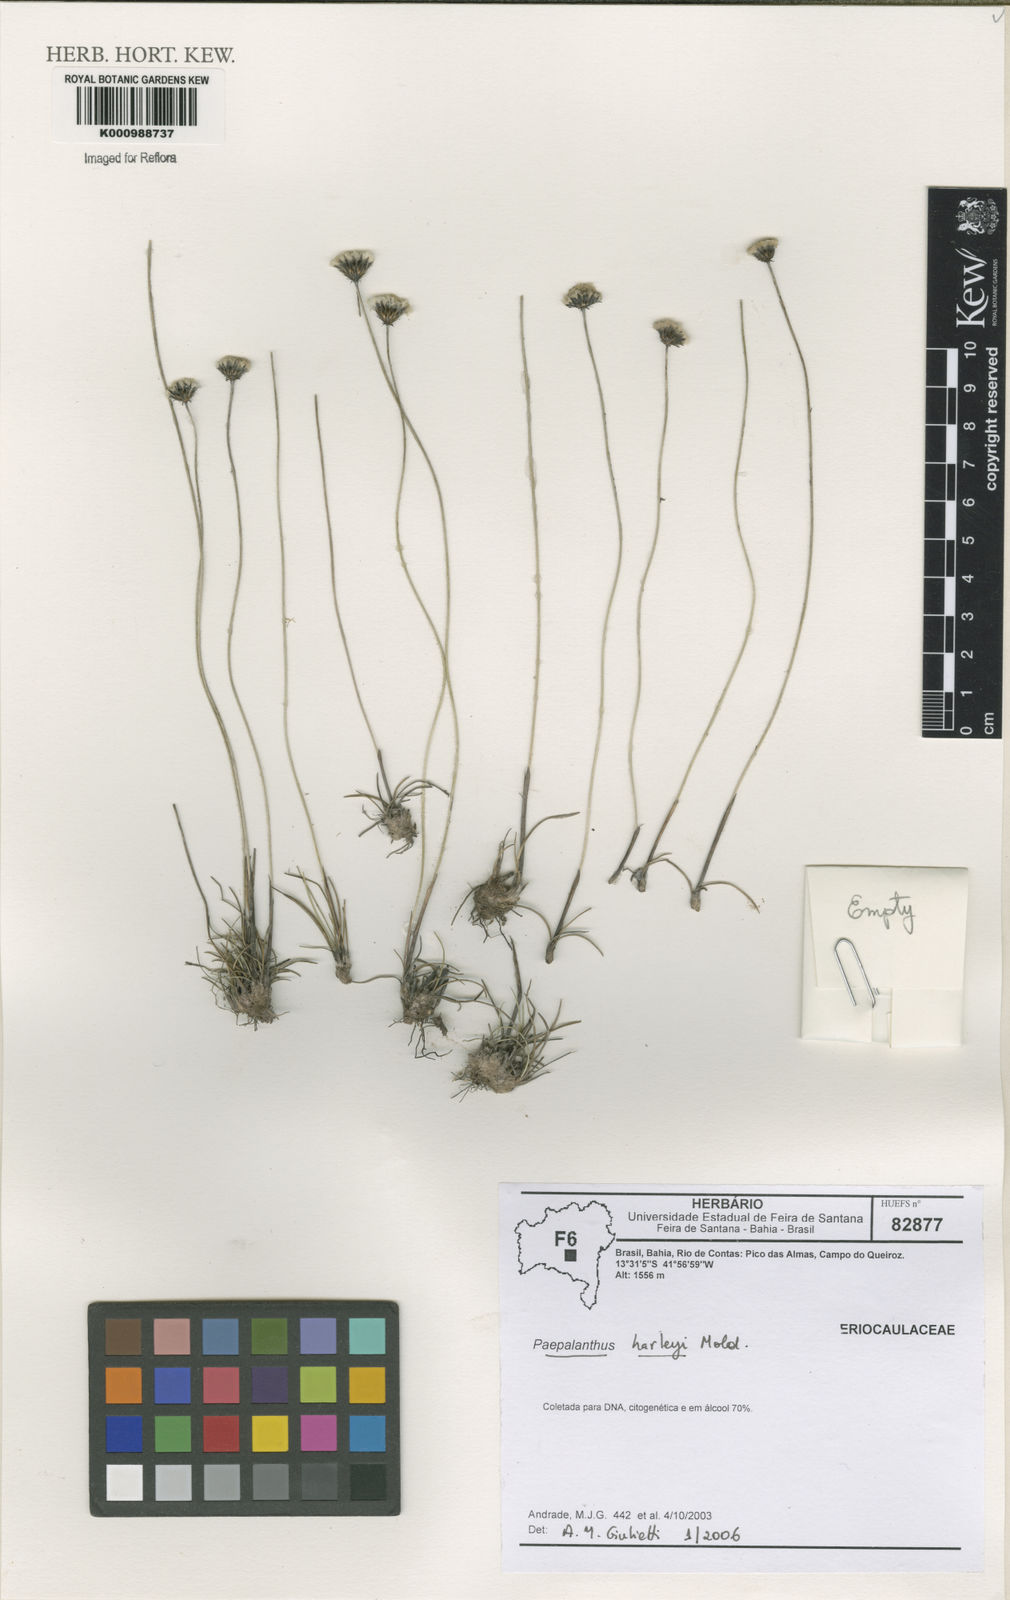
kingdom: Plantae
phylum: Tracheophyta
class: Liliopsida
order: Poales
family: Eriocaulaceae
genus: Paepalanthus
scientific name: Paepalanthus harleyi
